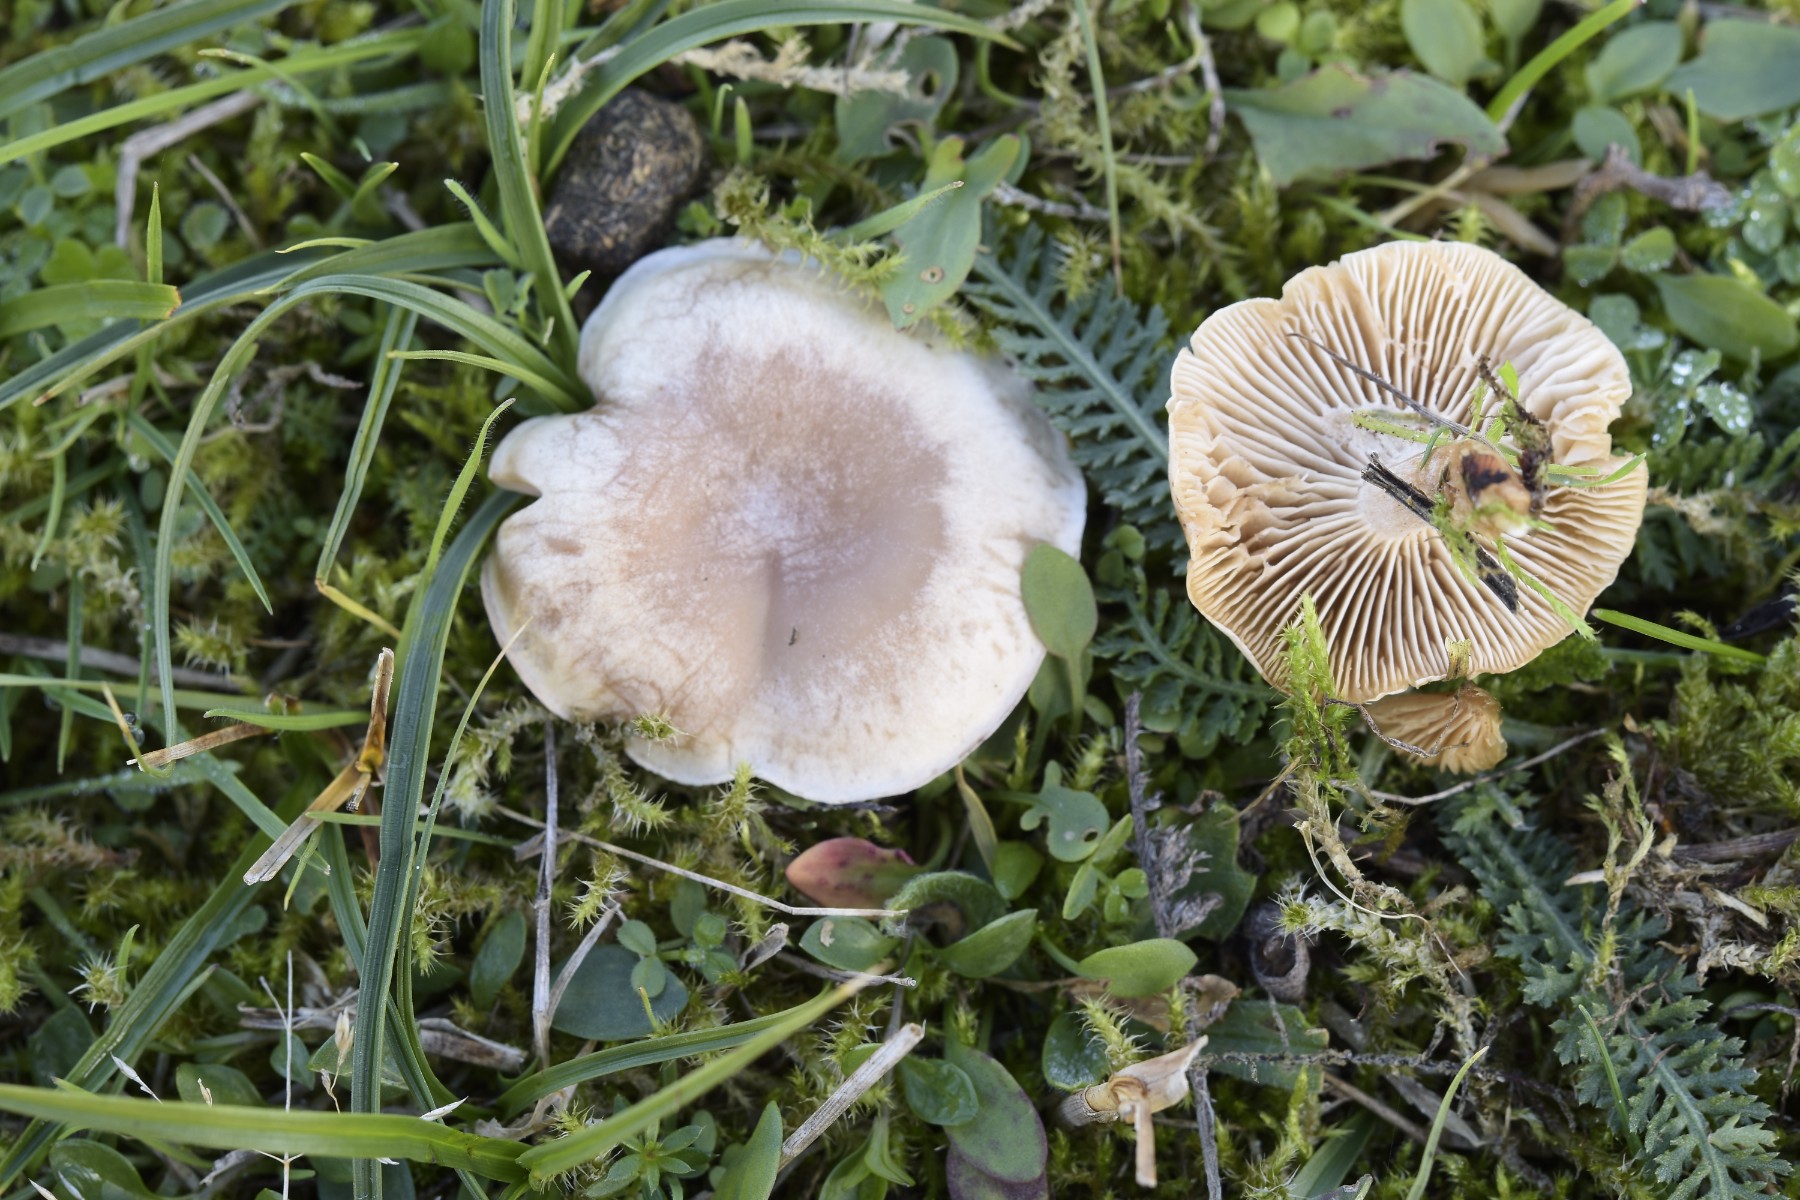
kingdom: Fungi
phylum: Basidiomycota
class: Agaricomycetes
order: Agaricales
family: Tricholomataceae
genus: Clitocybe
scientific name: Clitocybe rivulosa
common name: eng-tragthat
